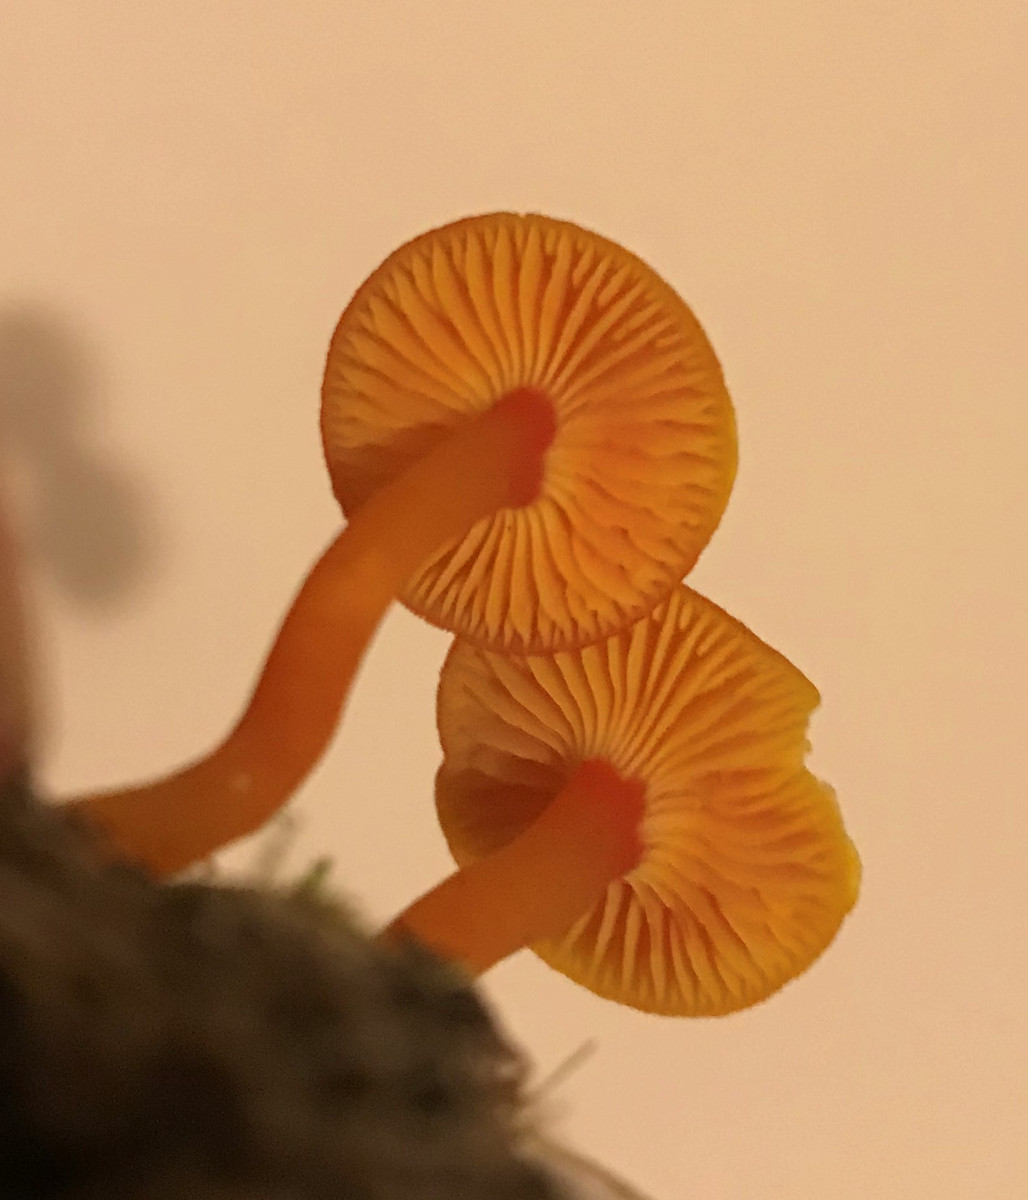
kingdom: Fungi
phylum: Basidiomycota
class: Agaricomycetes
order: Agaricales
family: Hygrophoraceae
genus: Hygrocybe
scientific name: Hygrocybe miniata
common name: mønje-vokshat
